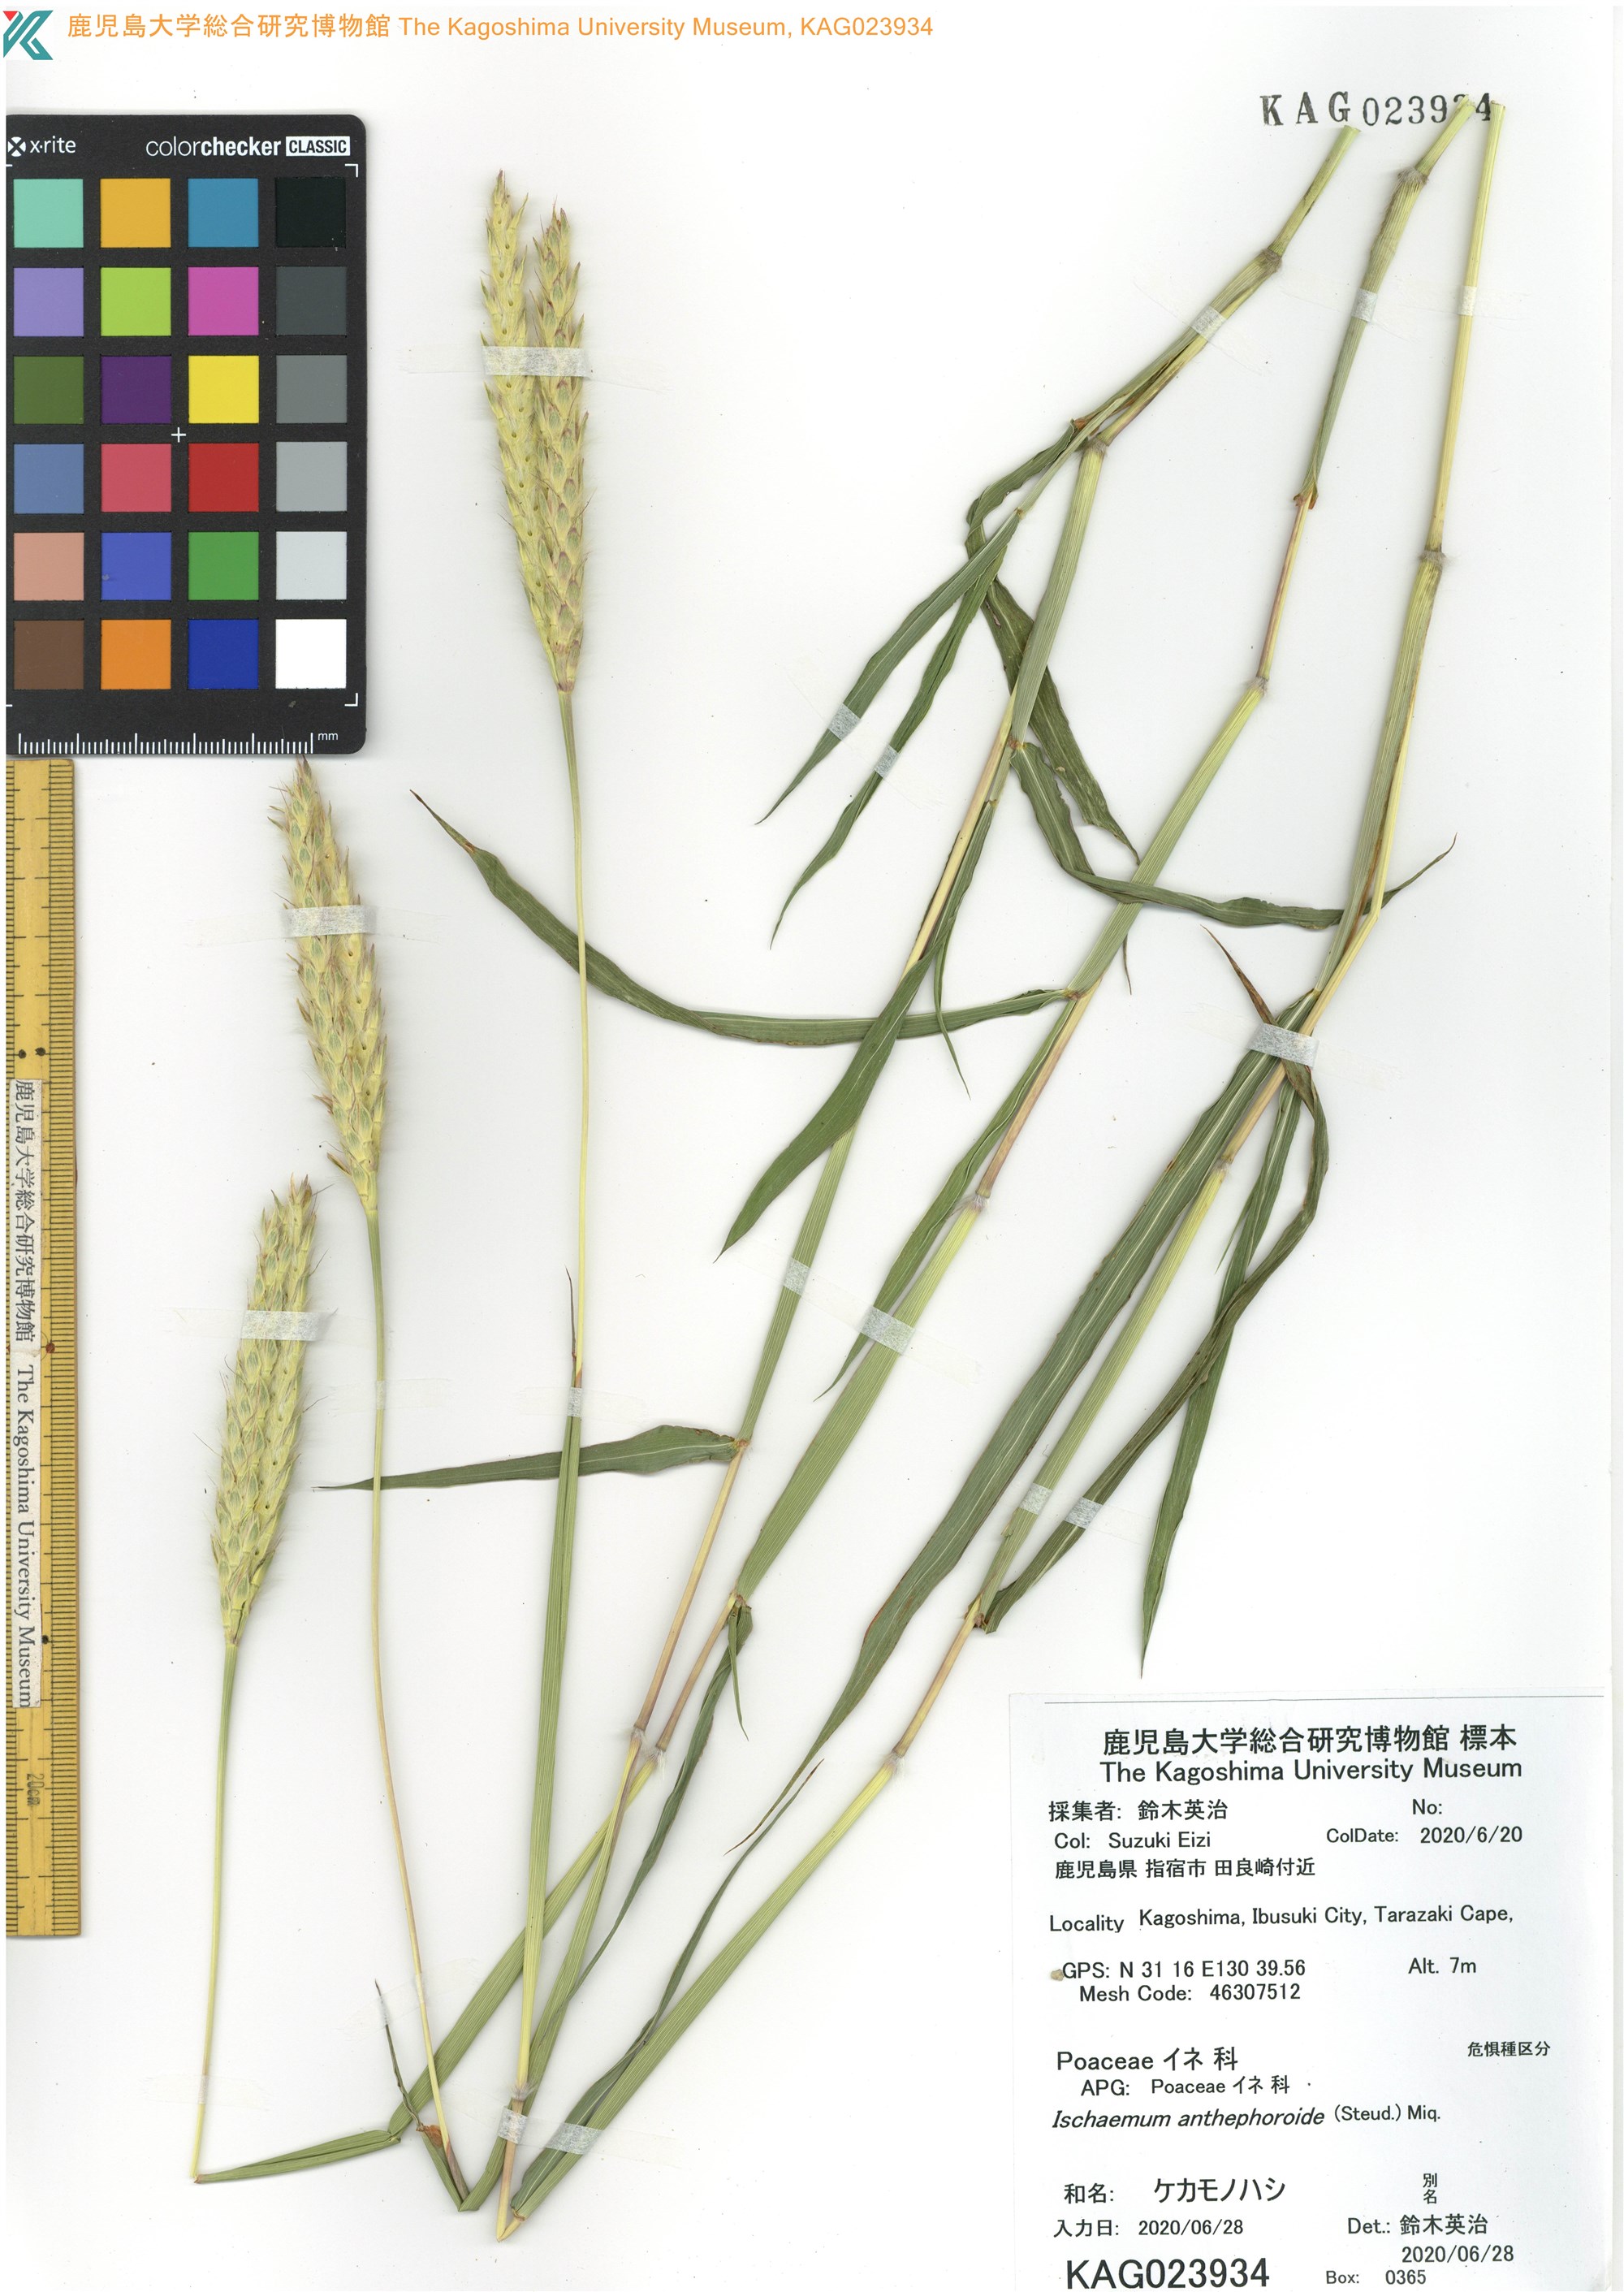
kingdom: Plantae
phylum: Tracheophyta
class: Liliopsida
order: Poales
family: Poaceae
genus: Ischaemum
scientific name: Ischaemum anthephoroides
